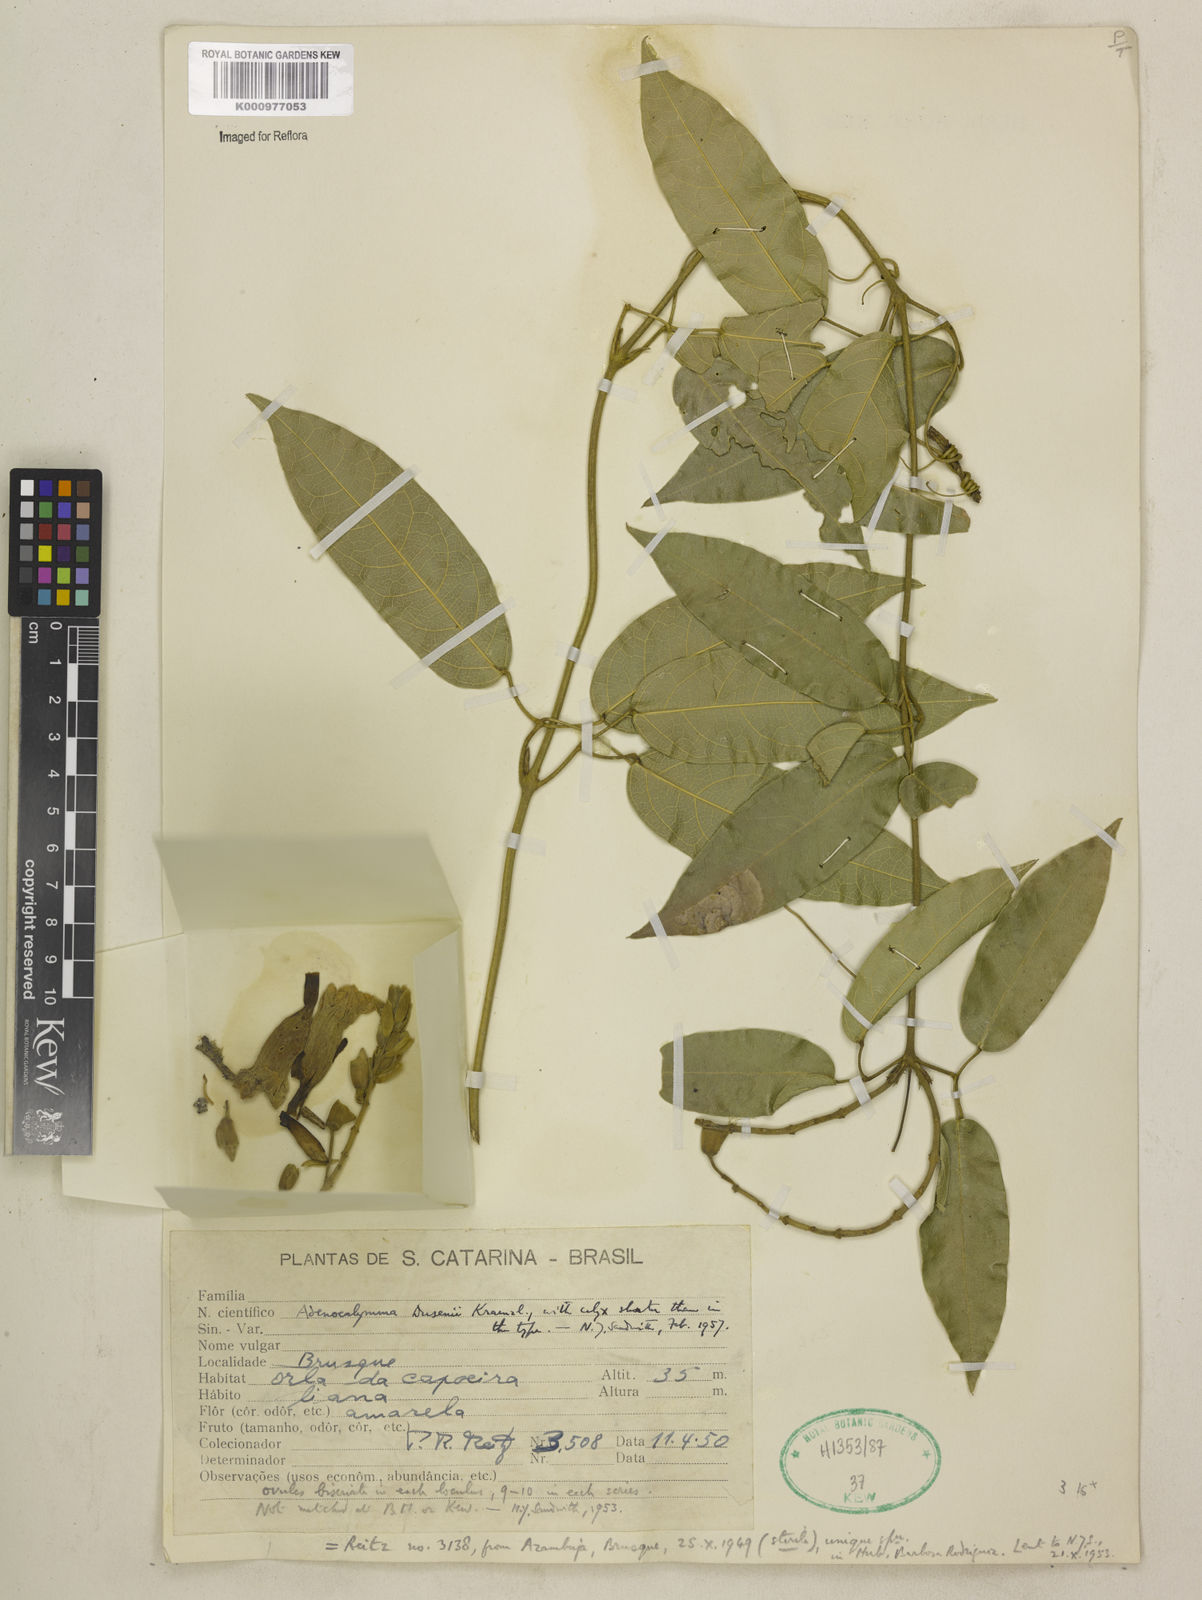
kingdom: Plantae
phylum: Tracheophyta
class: Magnoliopsida
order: Lamiales
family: Bignoniaceae
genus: Adenocalymma
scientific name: Adenocalymma dusenii
